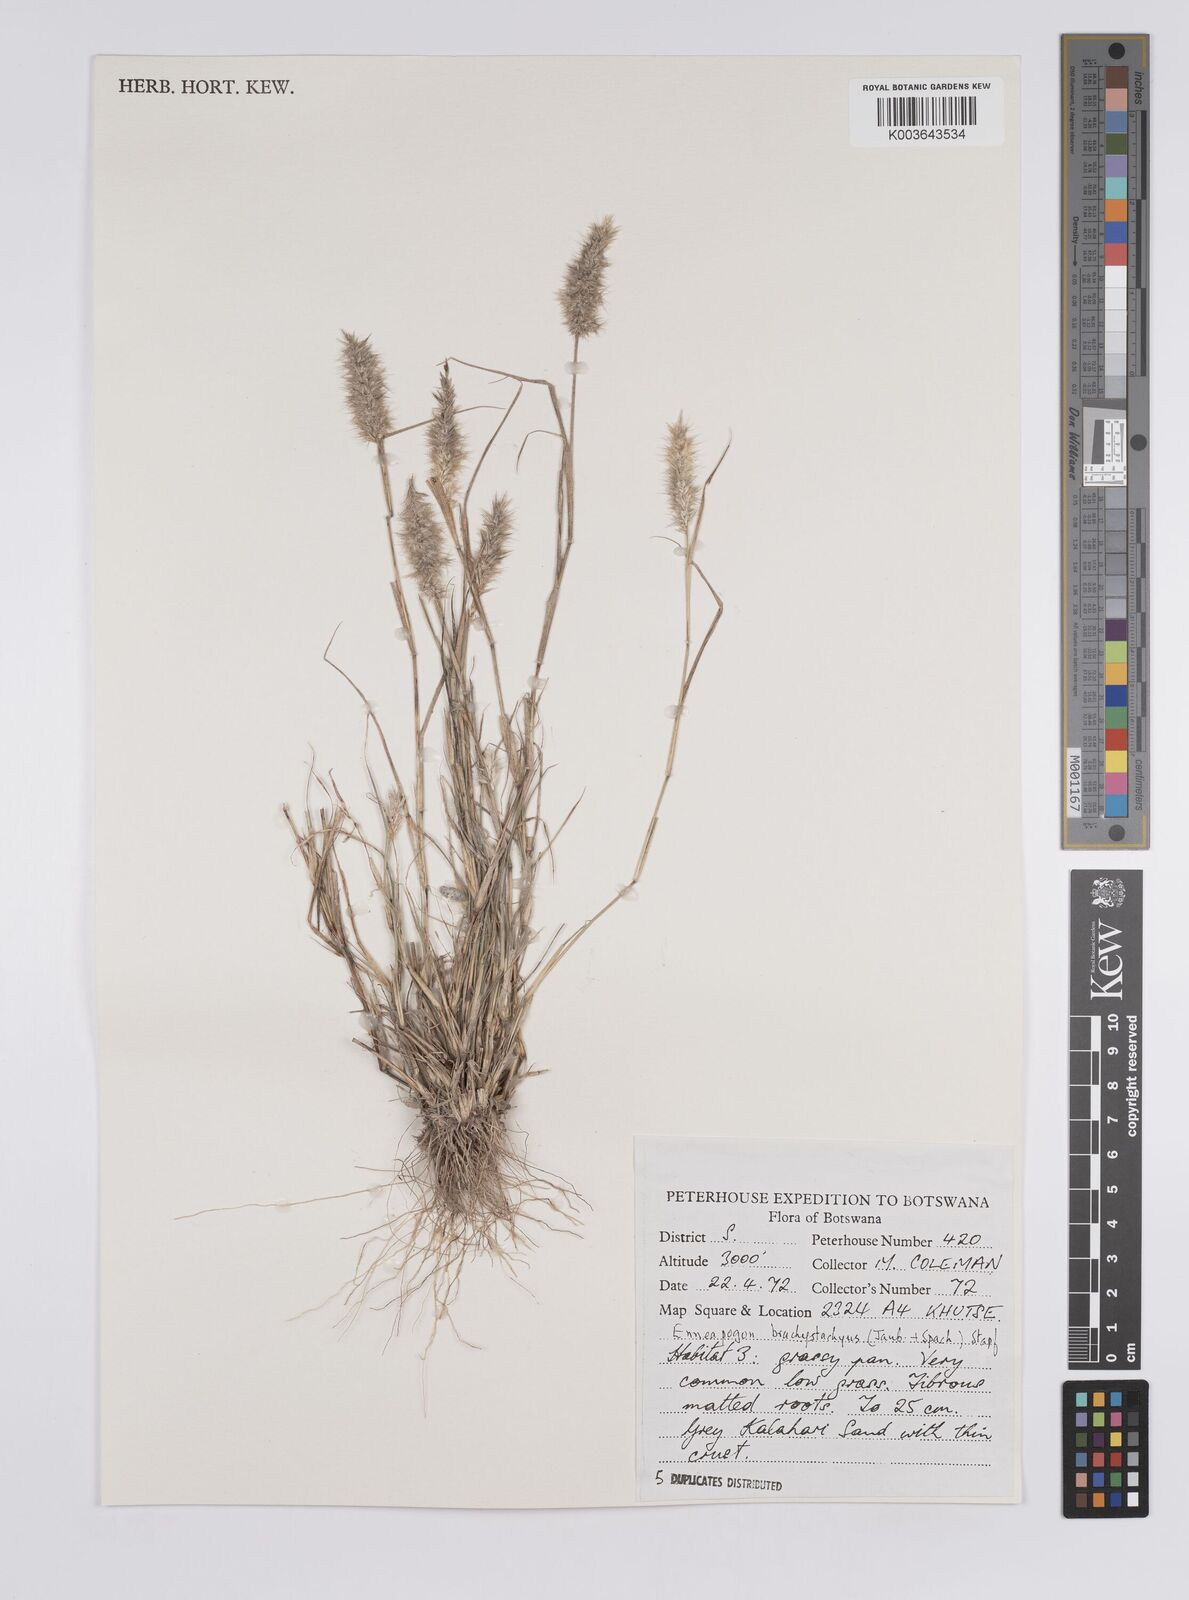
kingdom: Plantae
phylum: Tracheophyta
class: Liliopsida
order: Poales
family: Poaceae
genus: Enneapogon
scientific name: Enneapogon desvauxii
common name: Feather pappus grass
